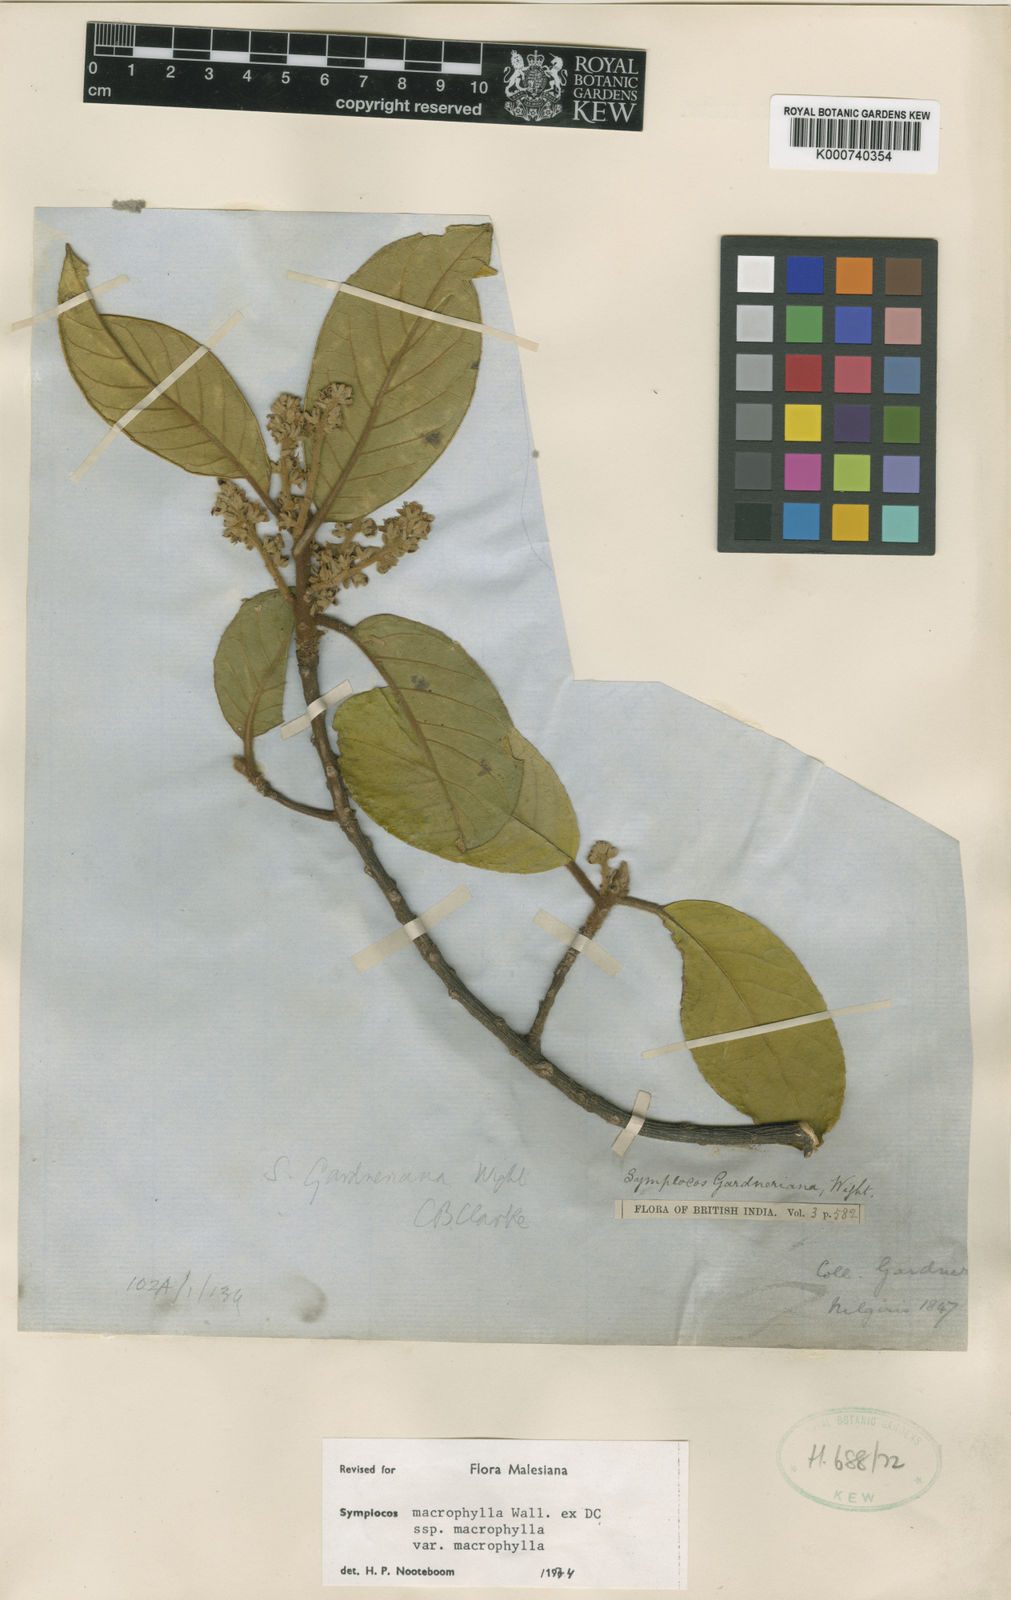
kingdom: Plantae
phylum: Tracheophyta
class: Magnoliopsida
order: Ericales
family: Symplocaceae
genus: Symplocos
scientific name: Symplocos
